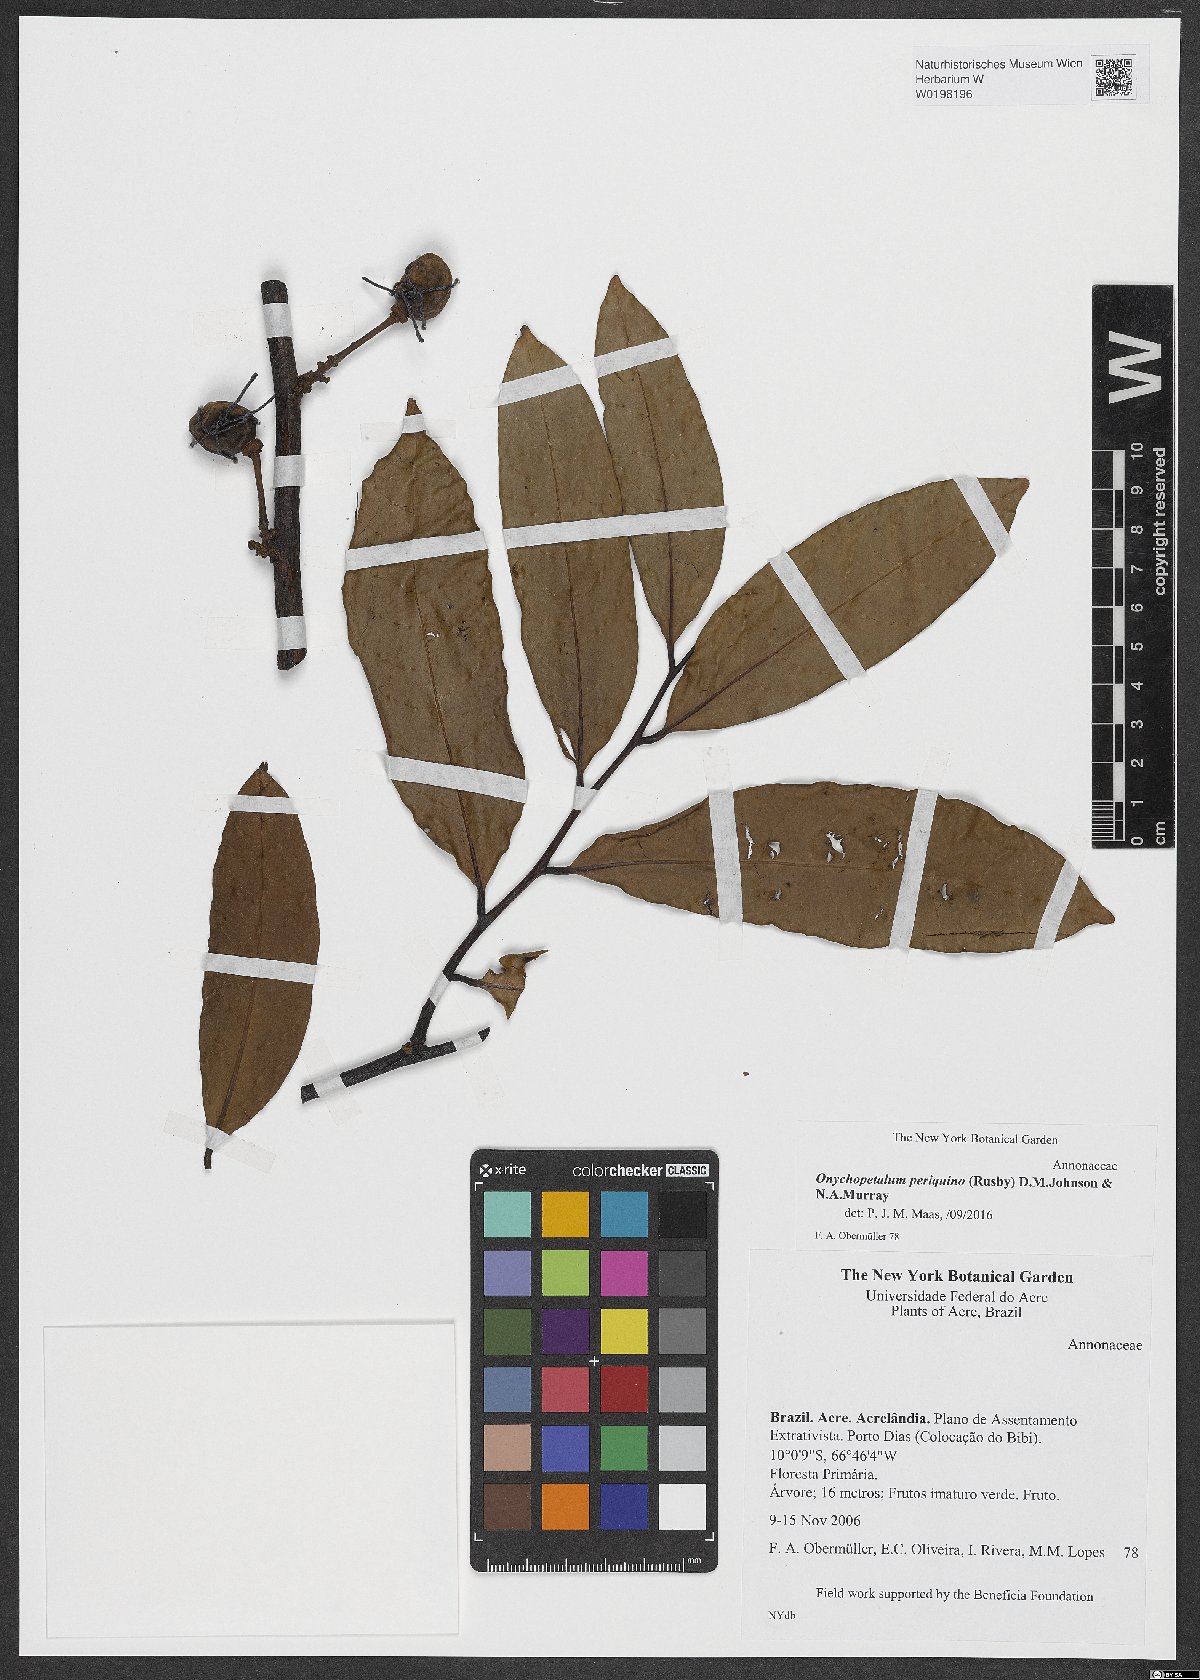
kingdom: Plantae
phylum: Tracheophyta
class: Magnoliopsida
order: Magnoliales
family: Annonaceae
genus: Onychopetalum
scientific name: Onychopetalum periquino
